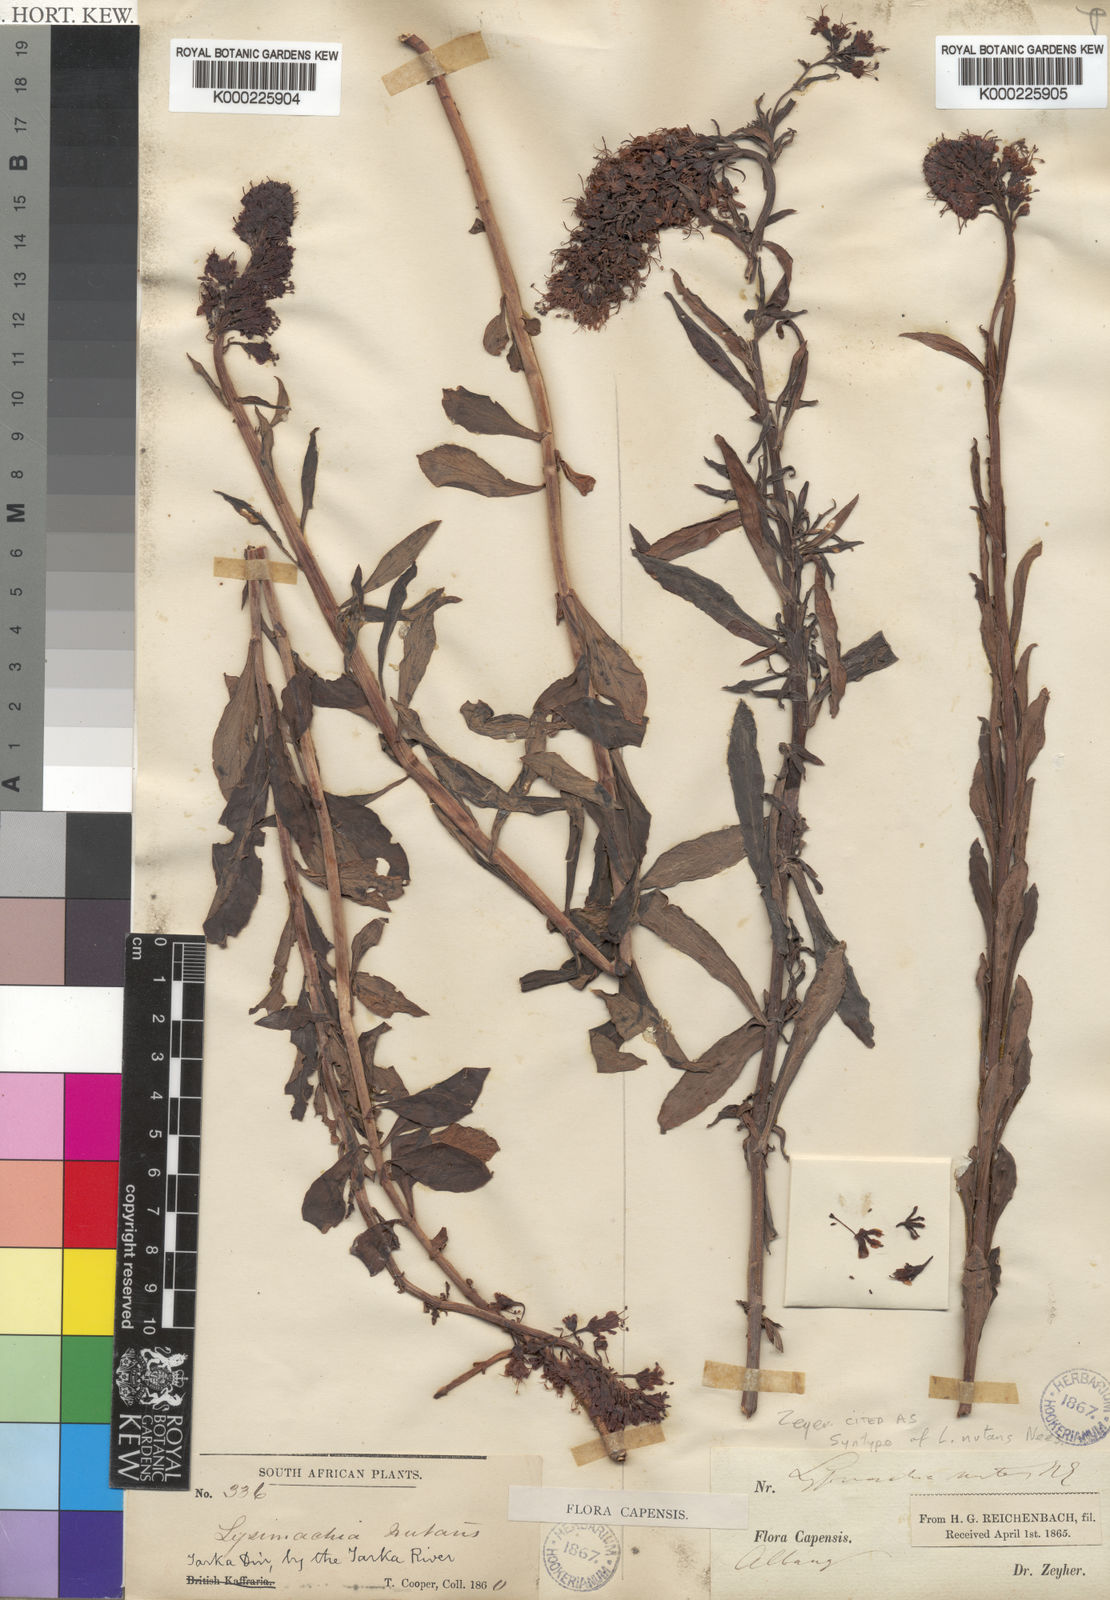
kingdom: Plantae
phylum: Tracheophyta
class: Magnoliopsida
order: Ericales
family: Primulaceae
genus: Lysimachia
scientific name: Lysimachia nutans
